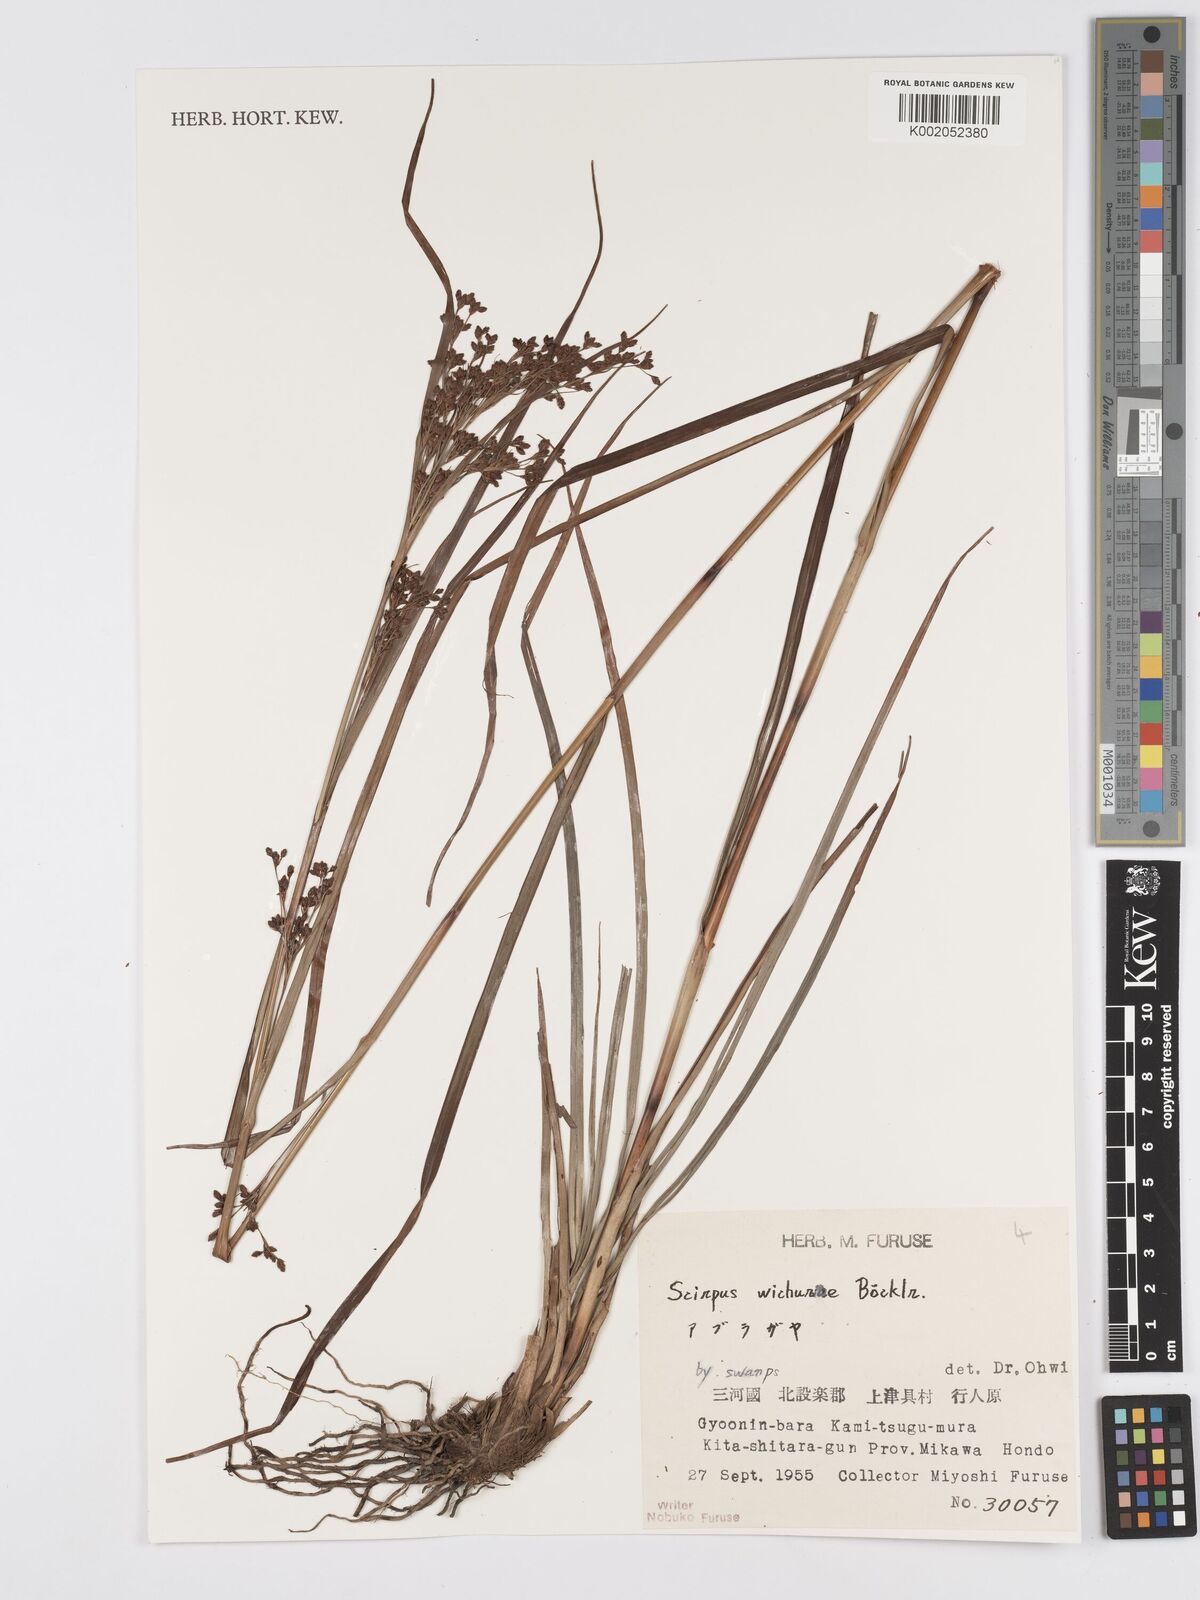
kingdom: Plantae
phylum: Tracheophyta
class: Liliopsida
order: Poales
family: Cyperaceae
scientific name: Cyperaceae
